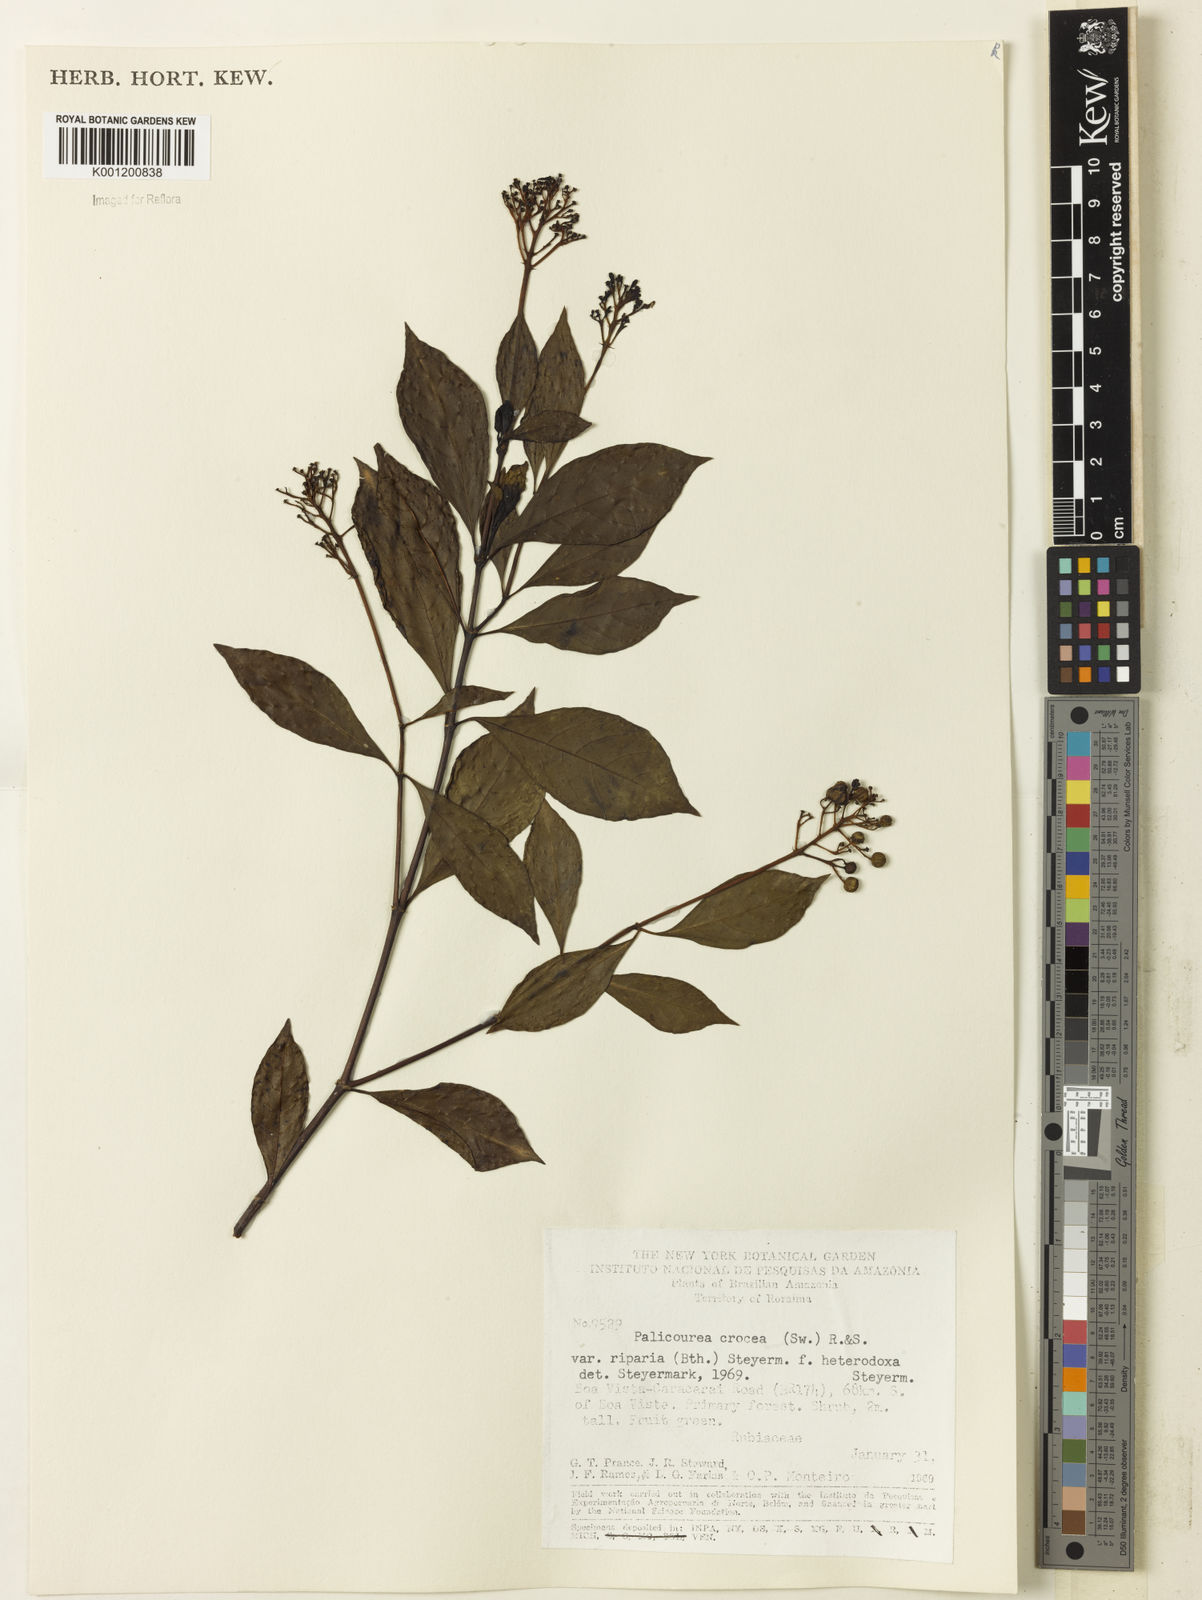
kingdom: Plantae
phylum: Tracheophyta
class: Magnoliopsida
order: Gentianales
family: Rubiaceae
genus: Palicourea
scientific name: Palicourea croceoides
